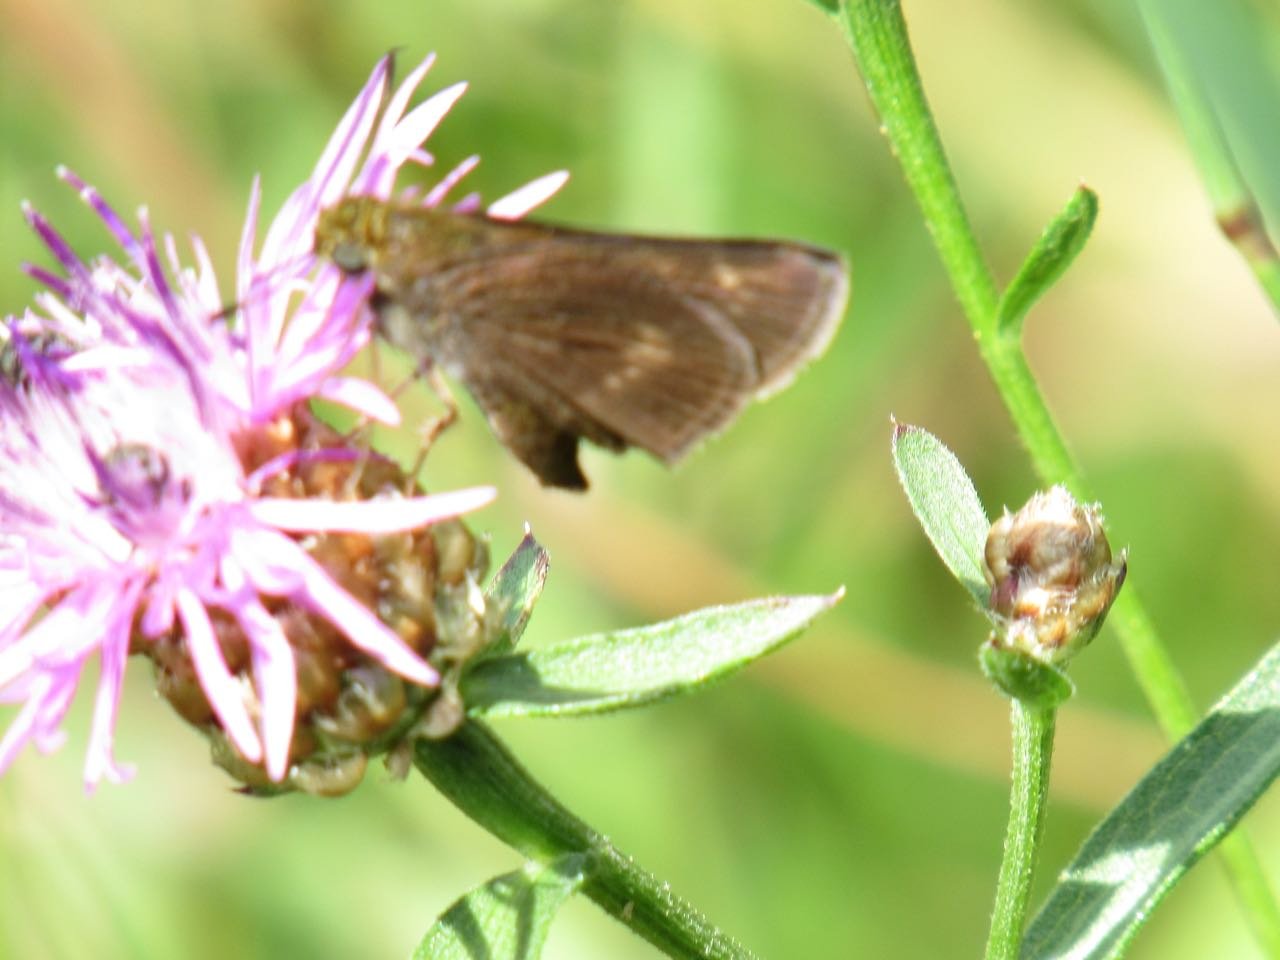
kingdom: Animalia
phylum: Arthropoda
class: Insecta
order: Lepidoptera
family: Hesperiidae
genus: Polites
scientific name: Polites egeremet
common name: Northern Broken-Dash
